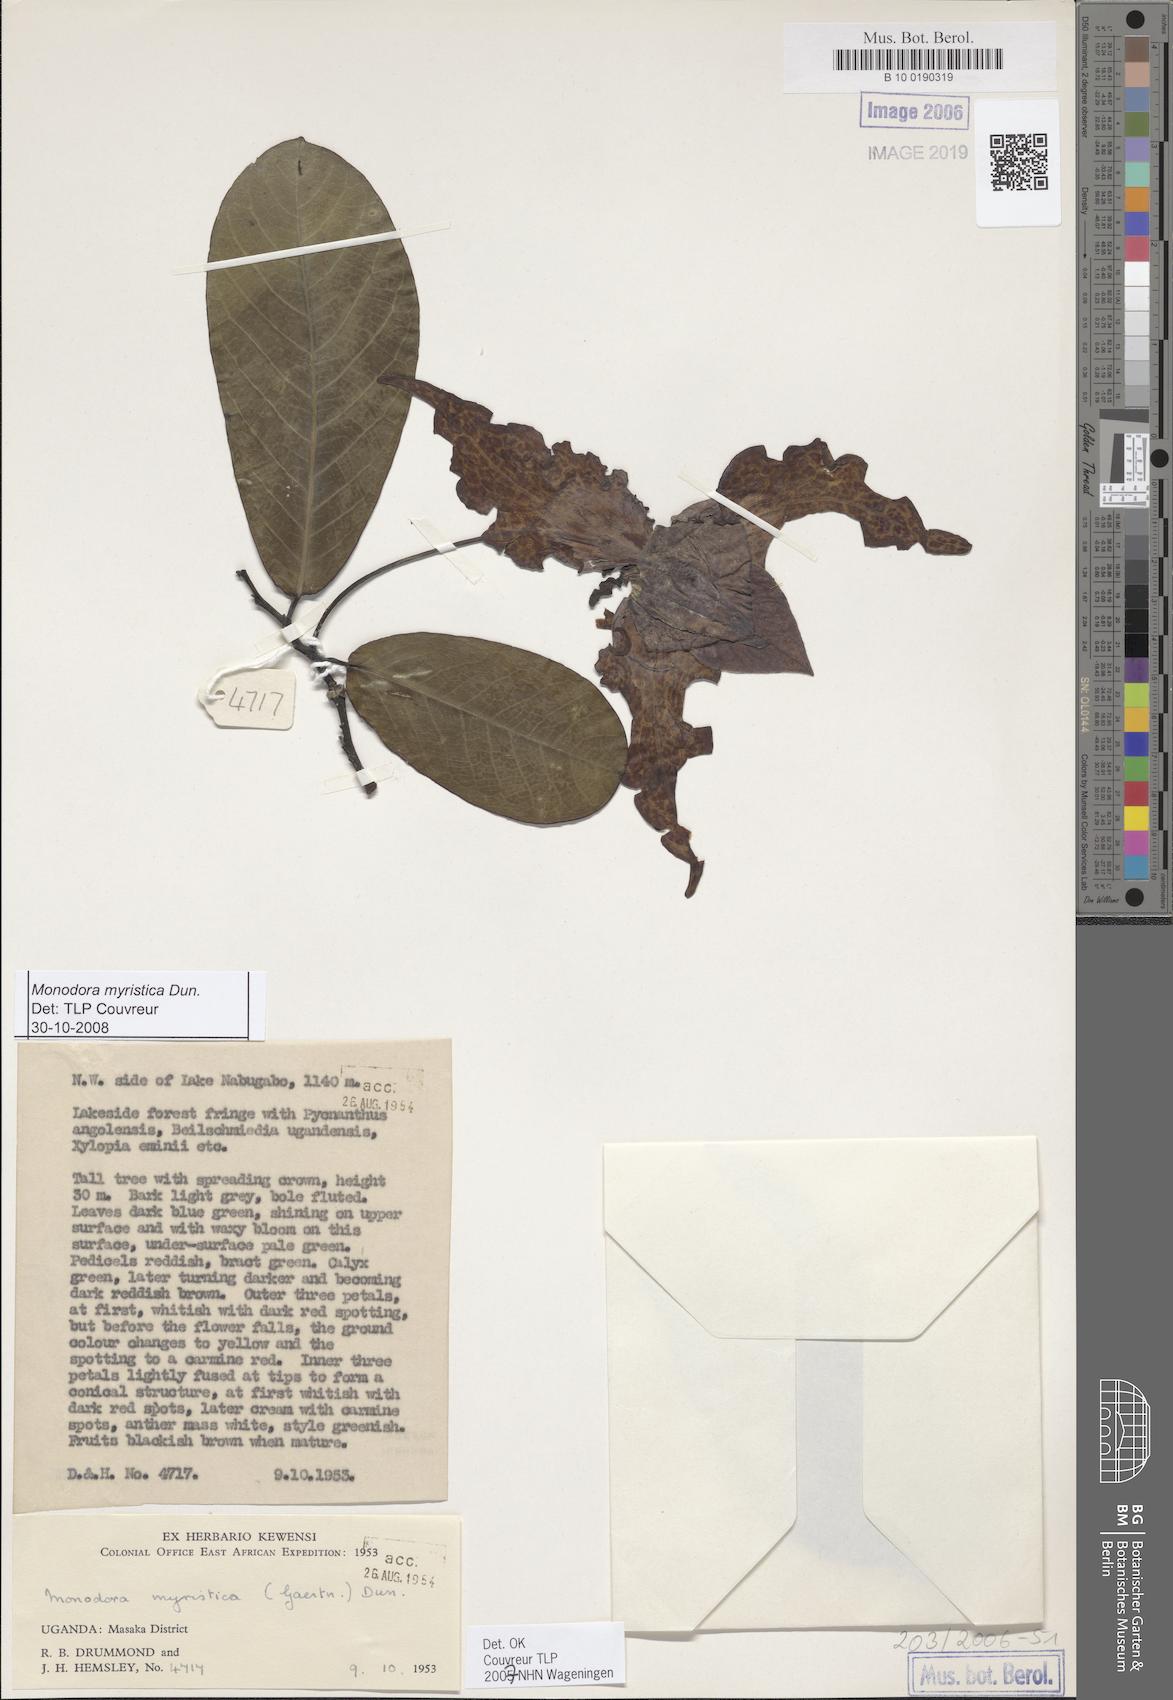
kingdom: Plantae
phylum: Tracheophyta
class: Magnoliopsida
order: Magnoliales
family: Annonaceae
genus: Monodora
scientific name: Monodora myristica
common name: African nutmeg
